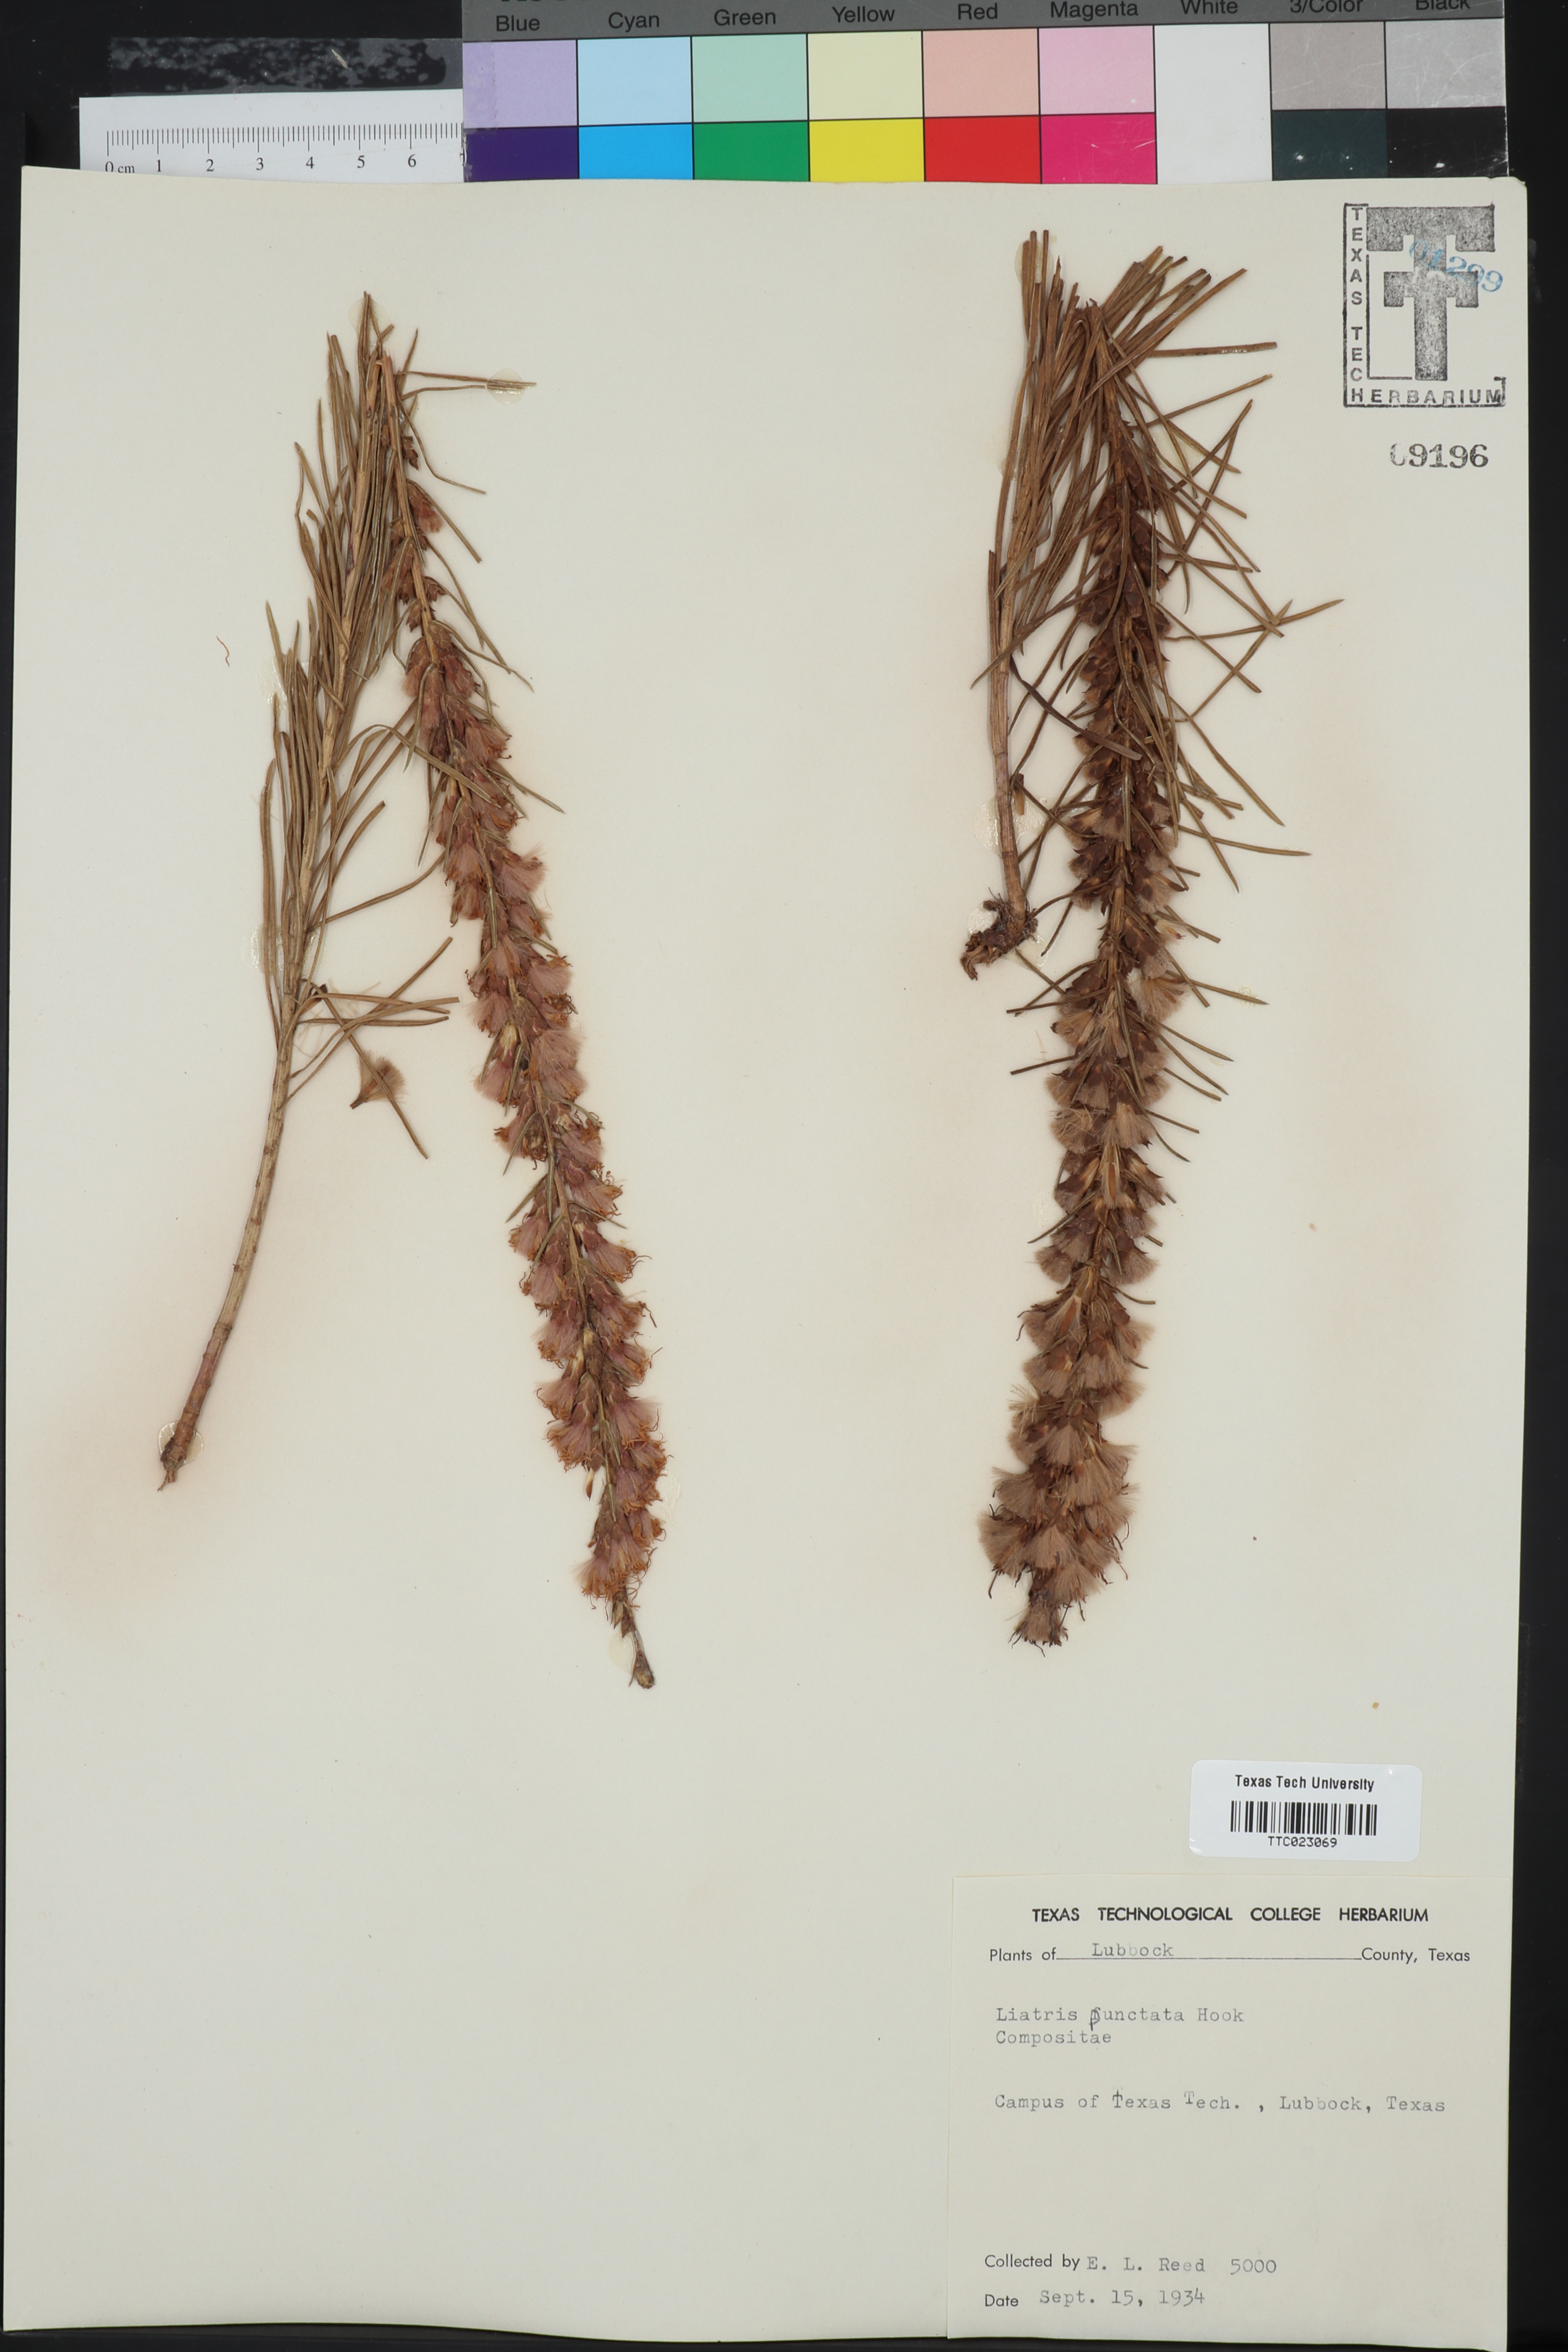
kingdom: Plantae
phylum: Tracheophyta
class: Magnoliopsida
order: Asterales
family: Asteraceae
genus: Liatris
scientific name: Liatris punctata
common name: Dotted gayfeather
